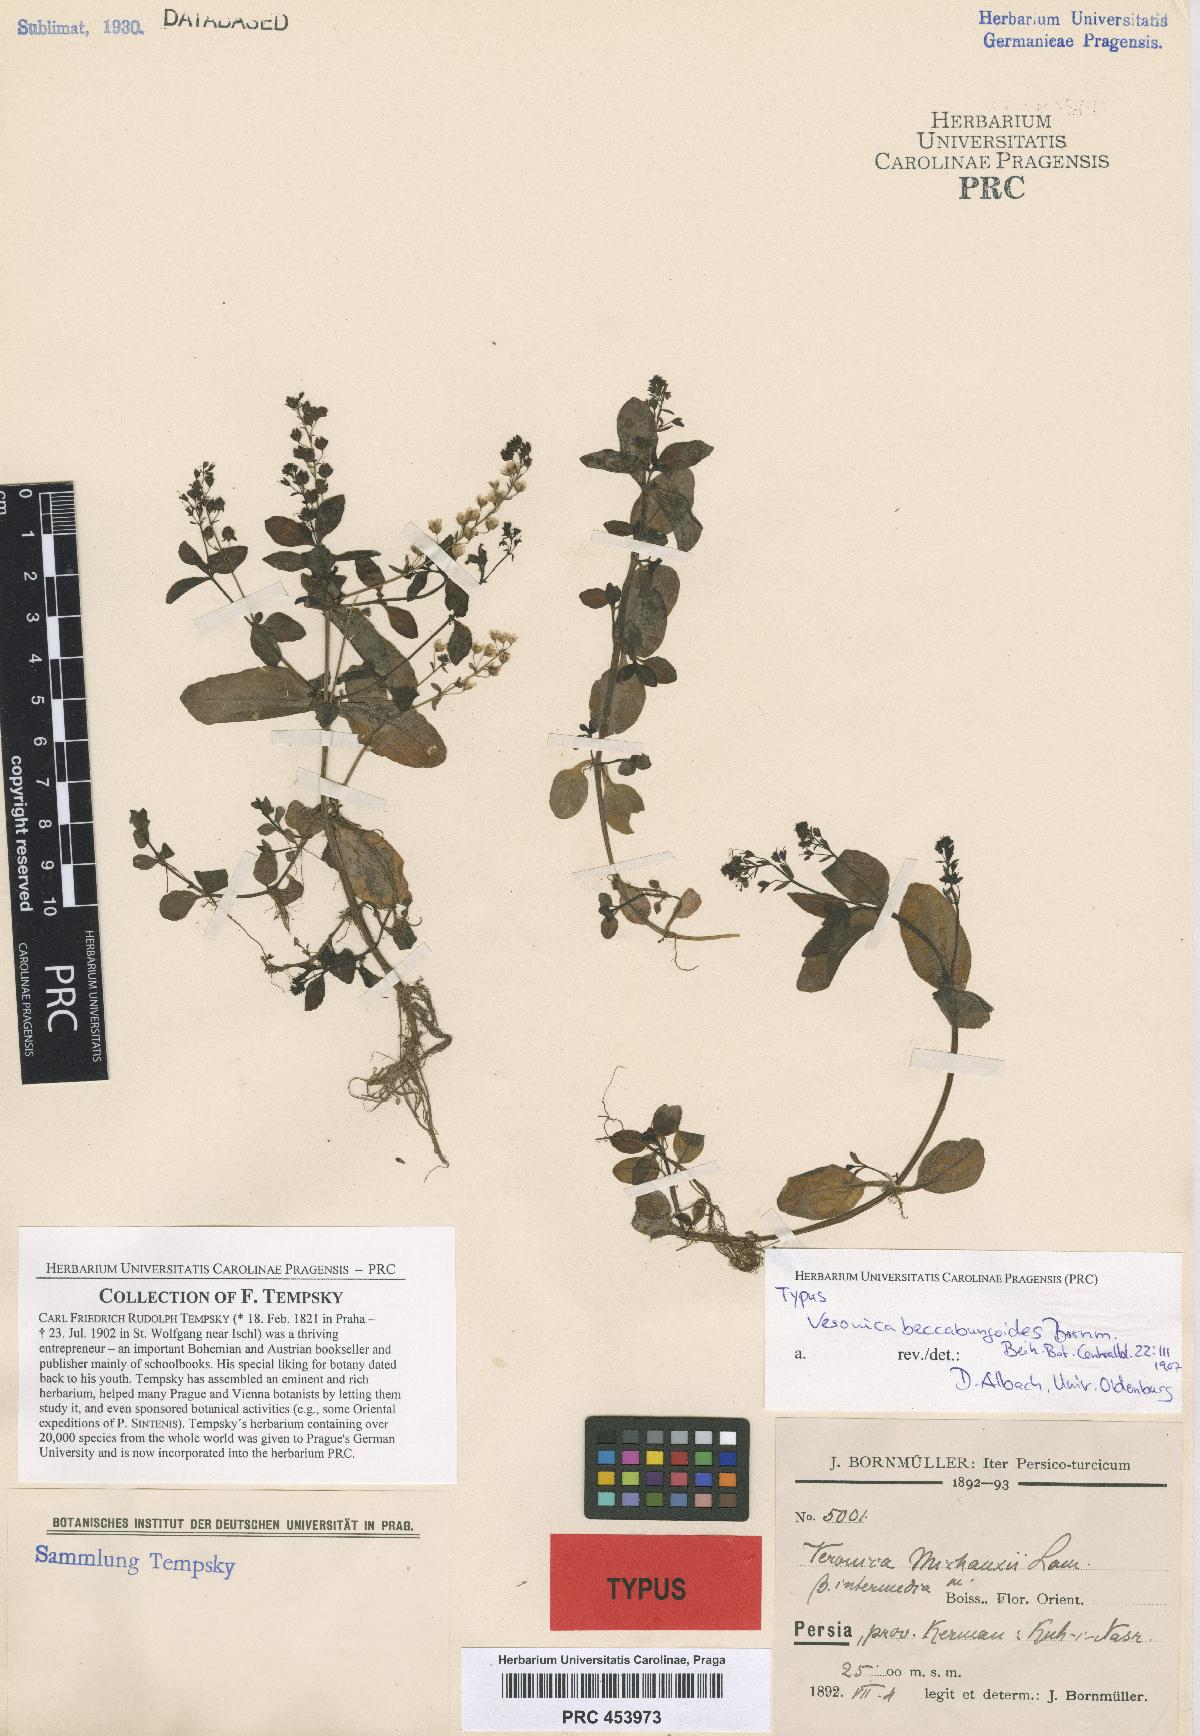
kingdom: Plantae
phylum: Tracheophyta
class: Magnoliopsida
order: Lamiales
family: Plantaginaceae
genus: Veronica
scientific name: Veronica oxycarpa
